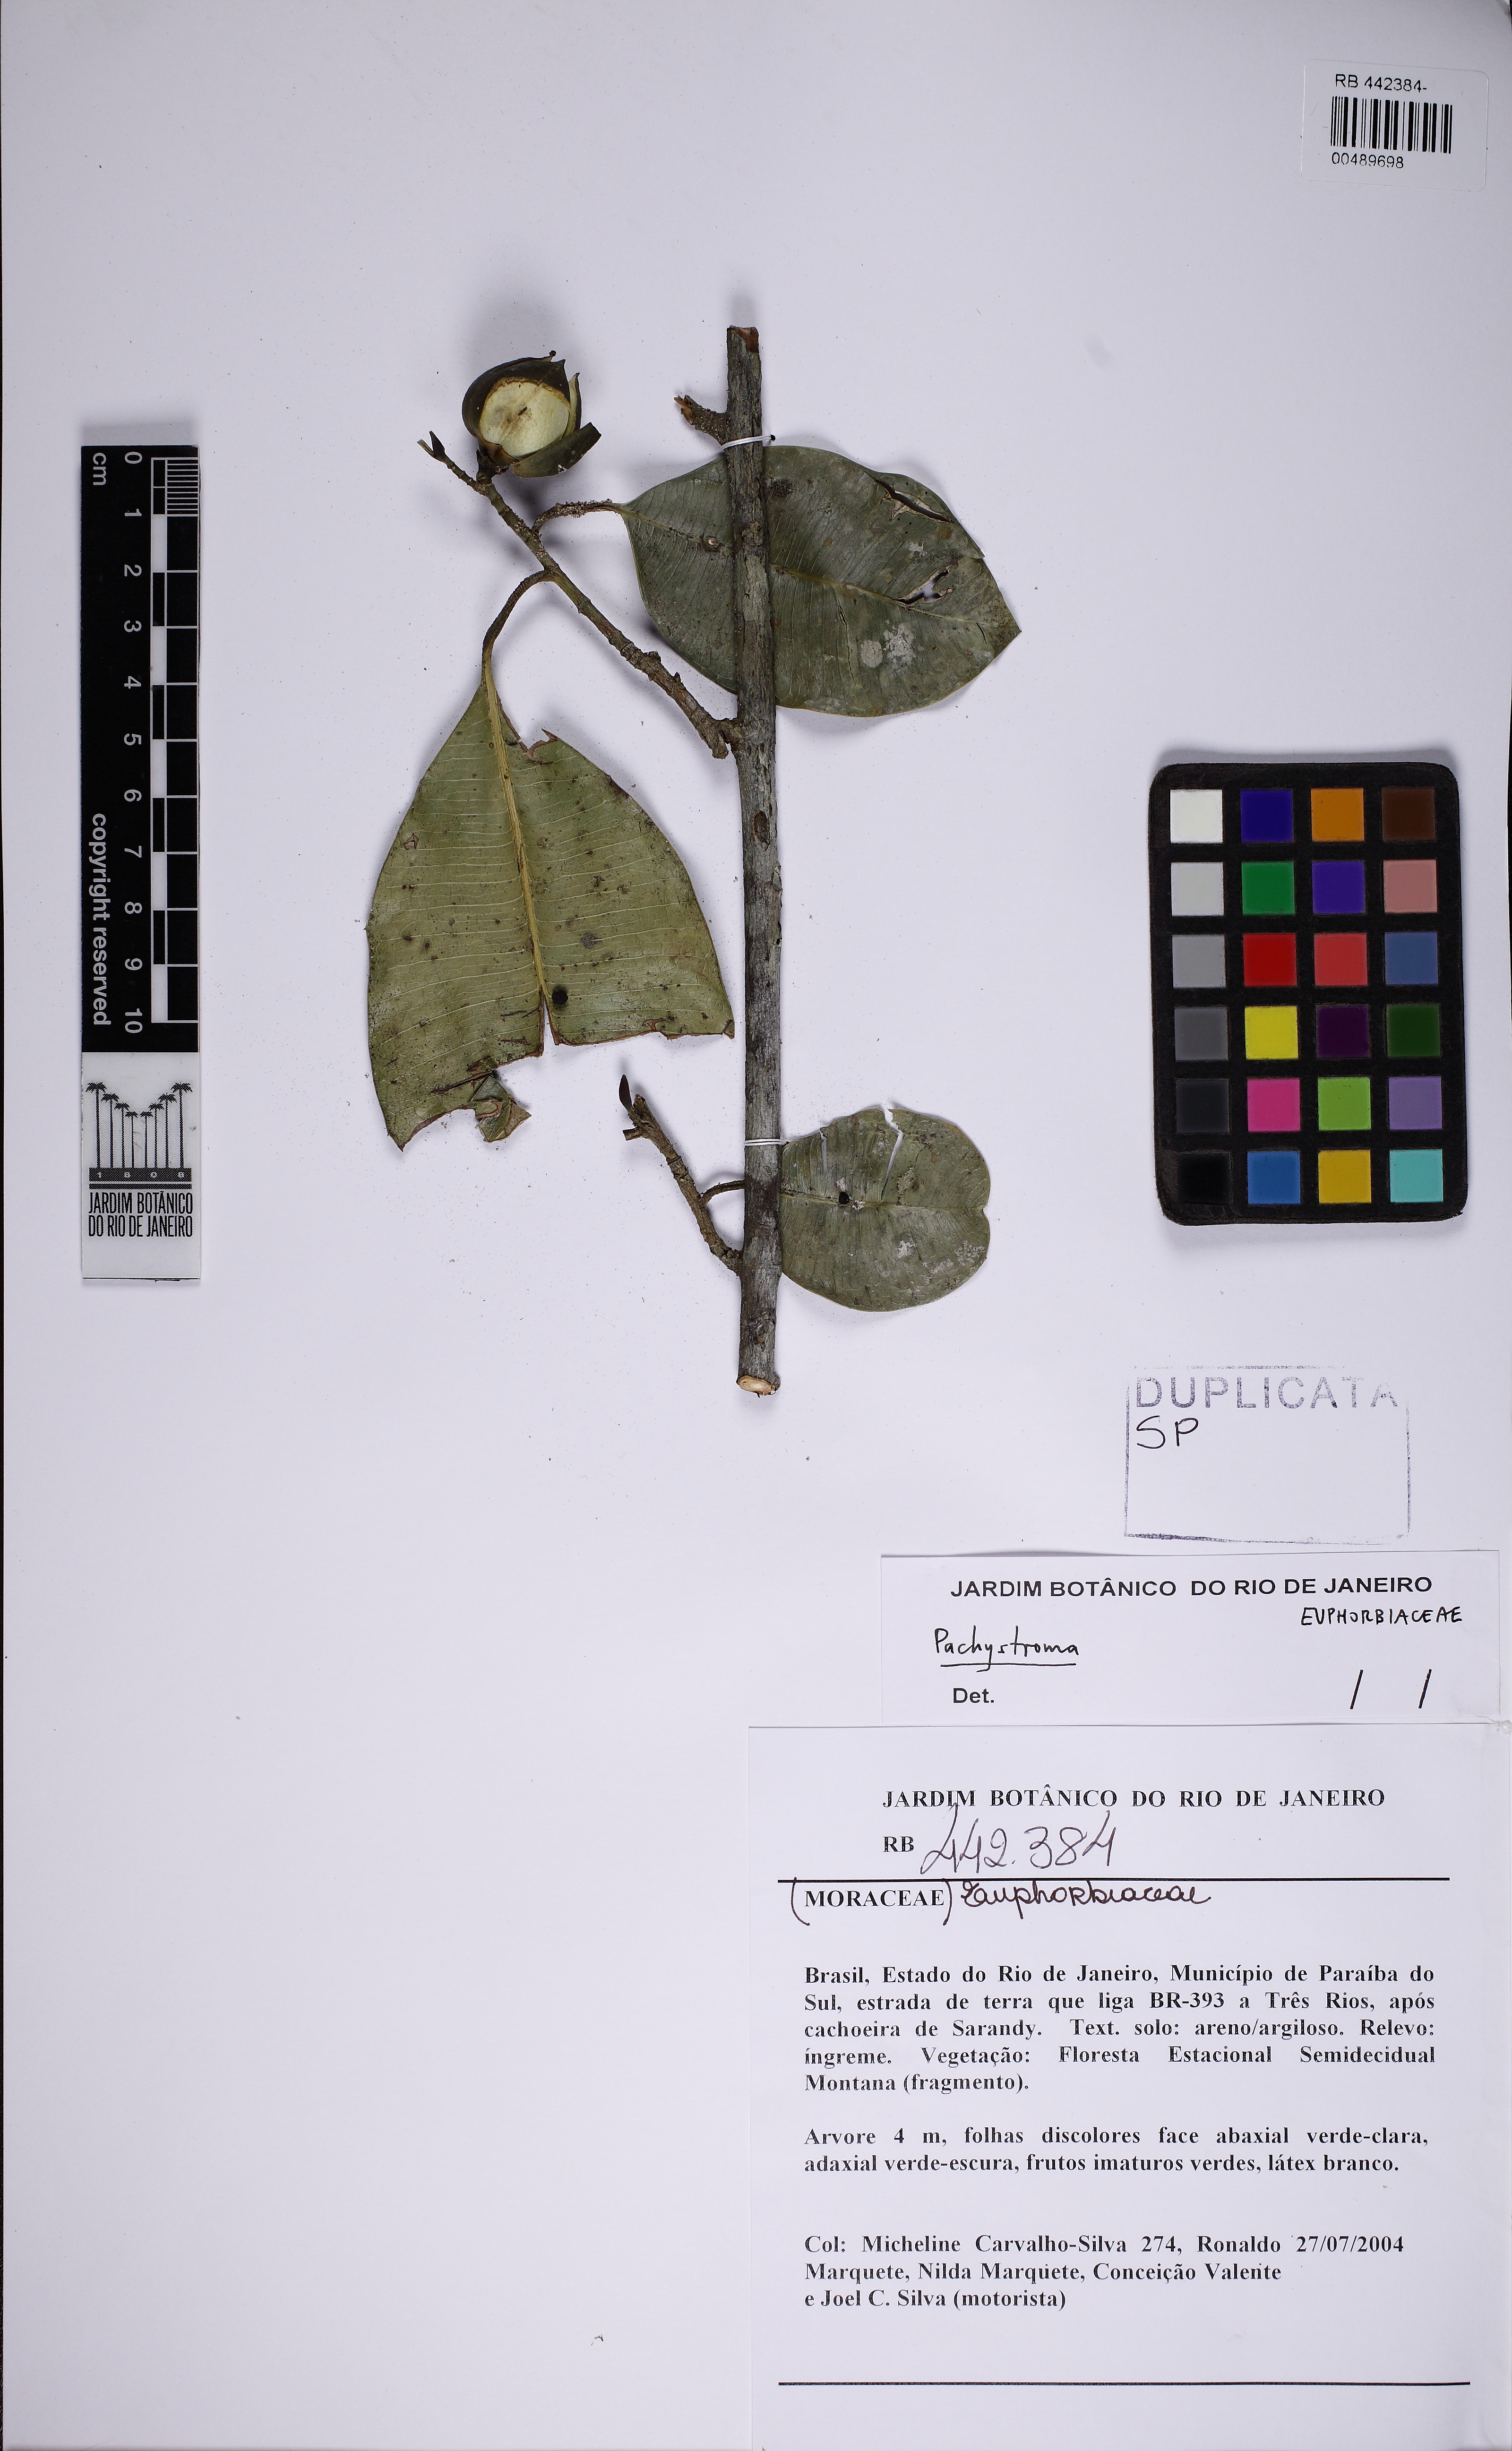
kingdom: Plantae
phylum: Tracheophyta
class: Magnoliopsida
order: Malpighiales
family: Euphorbiaceae
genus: Pachystroma
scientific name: Pachystroma
